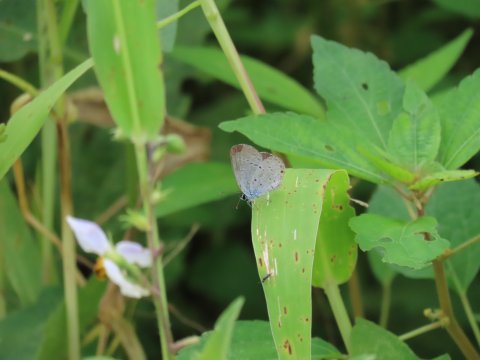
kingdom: Animalia
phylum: Arthropoda
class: Insecta
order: Lepidoptera
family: Lycaenidae
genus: Elkalyce
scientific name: Elkalyce comyntas
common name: Eastern Tailed-Blue
